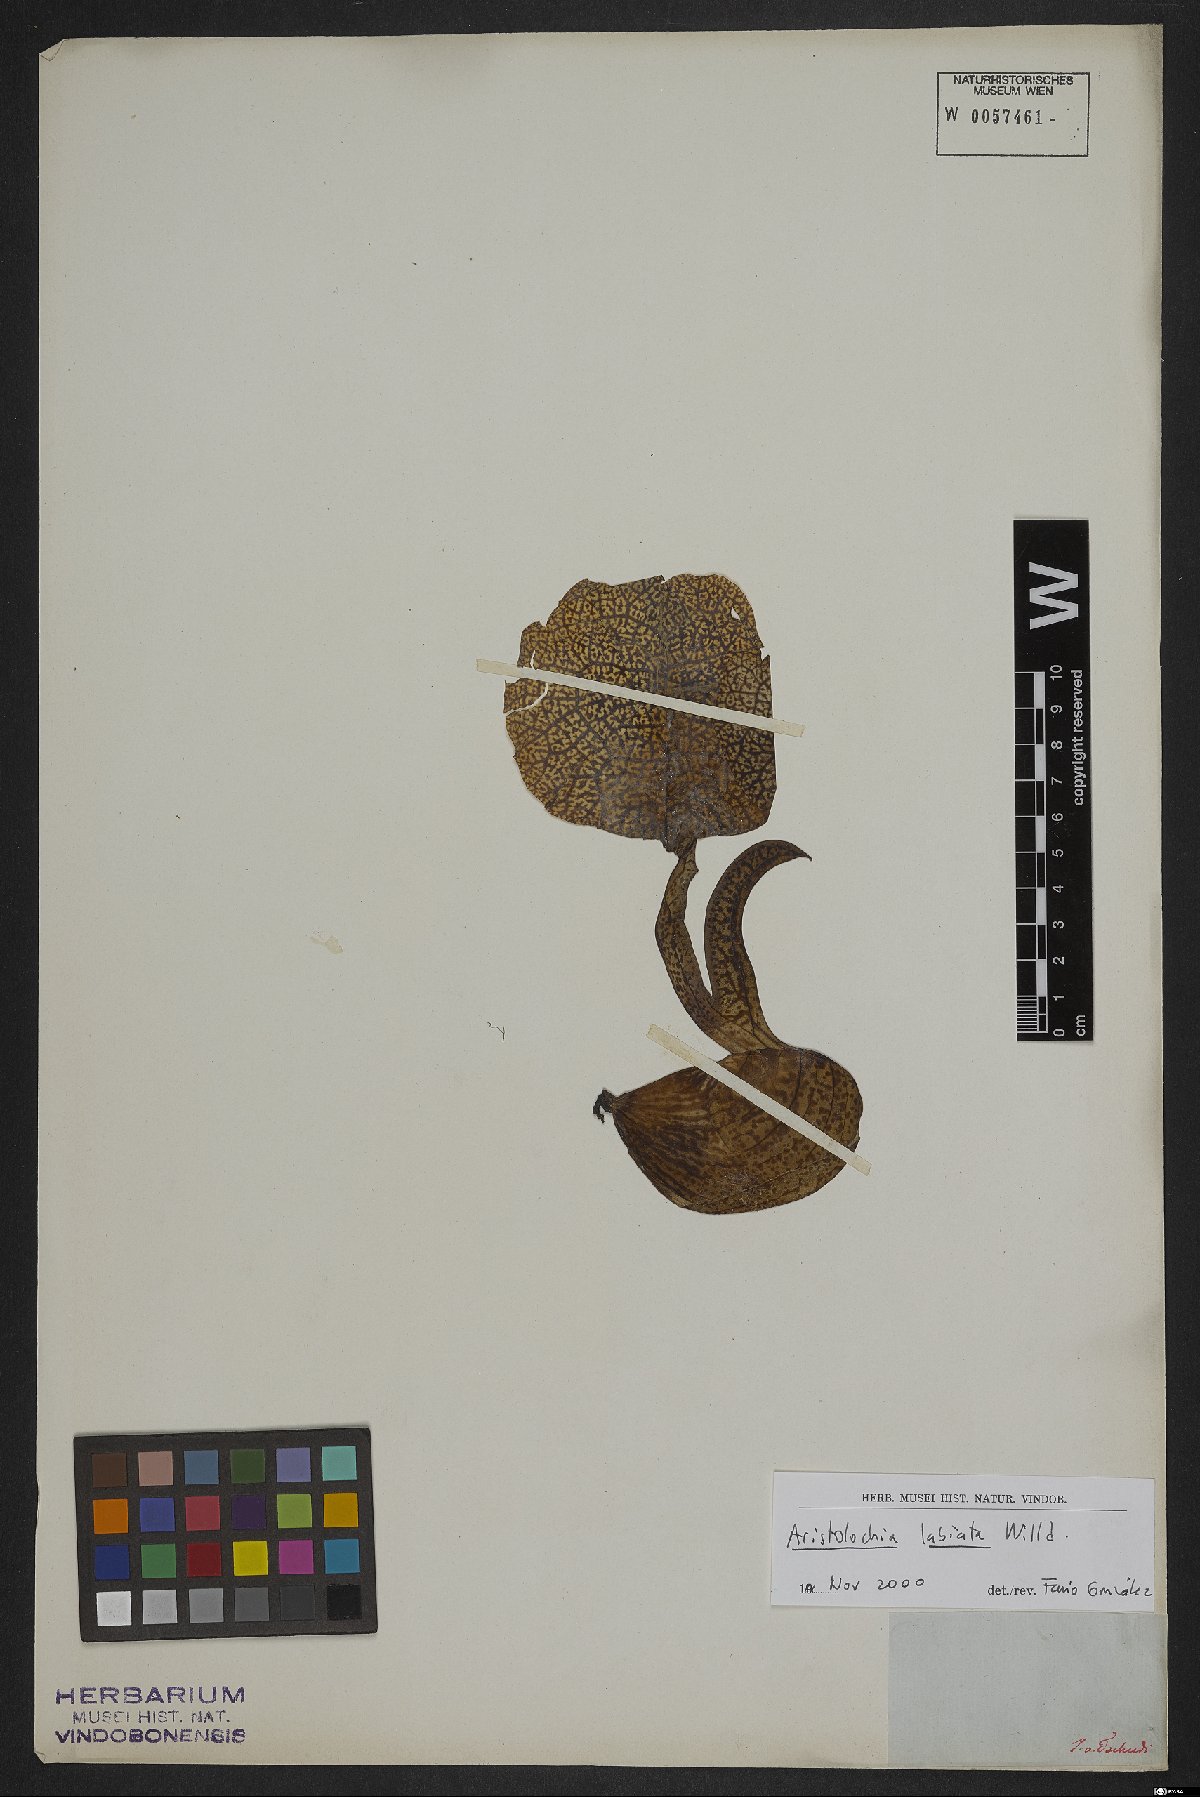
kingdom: Plantae
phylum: Tracheophyta
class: Magnoliopsida
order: Piperales
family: Aristolochiaceae
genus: Aristolochia
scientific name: Aristolochia labiata
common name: Mottled dutchman's pipe
